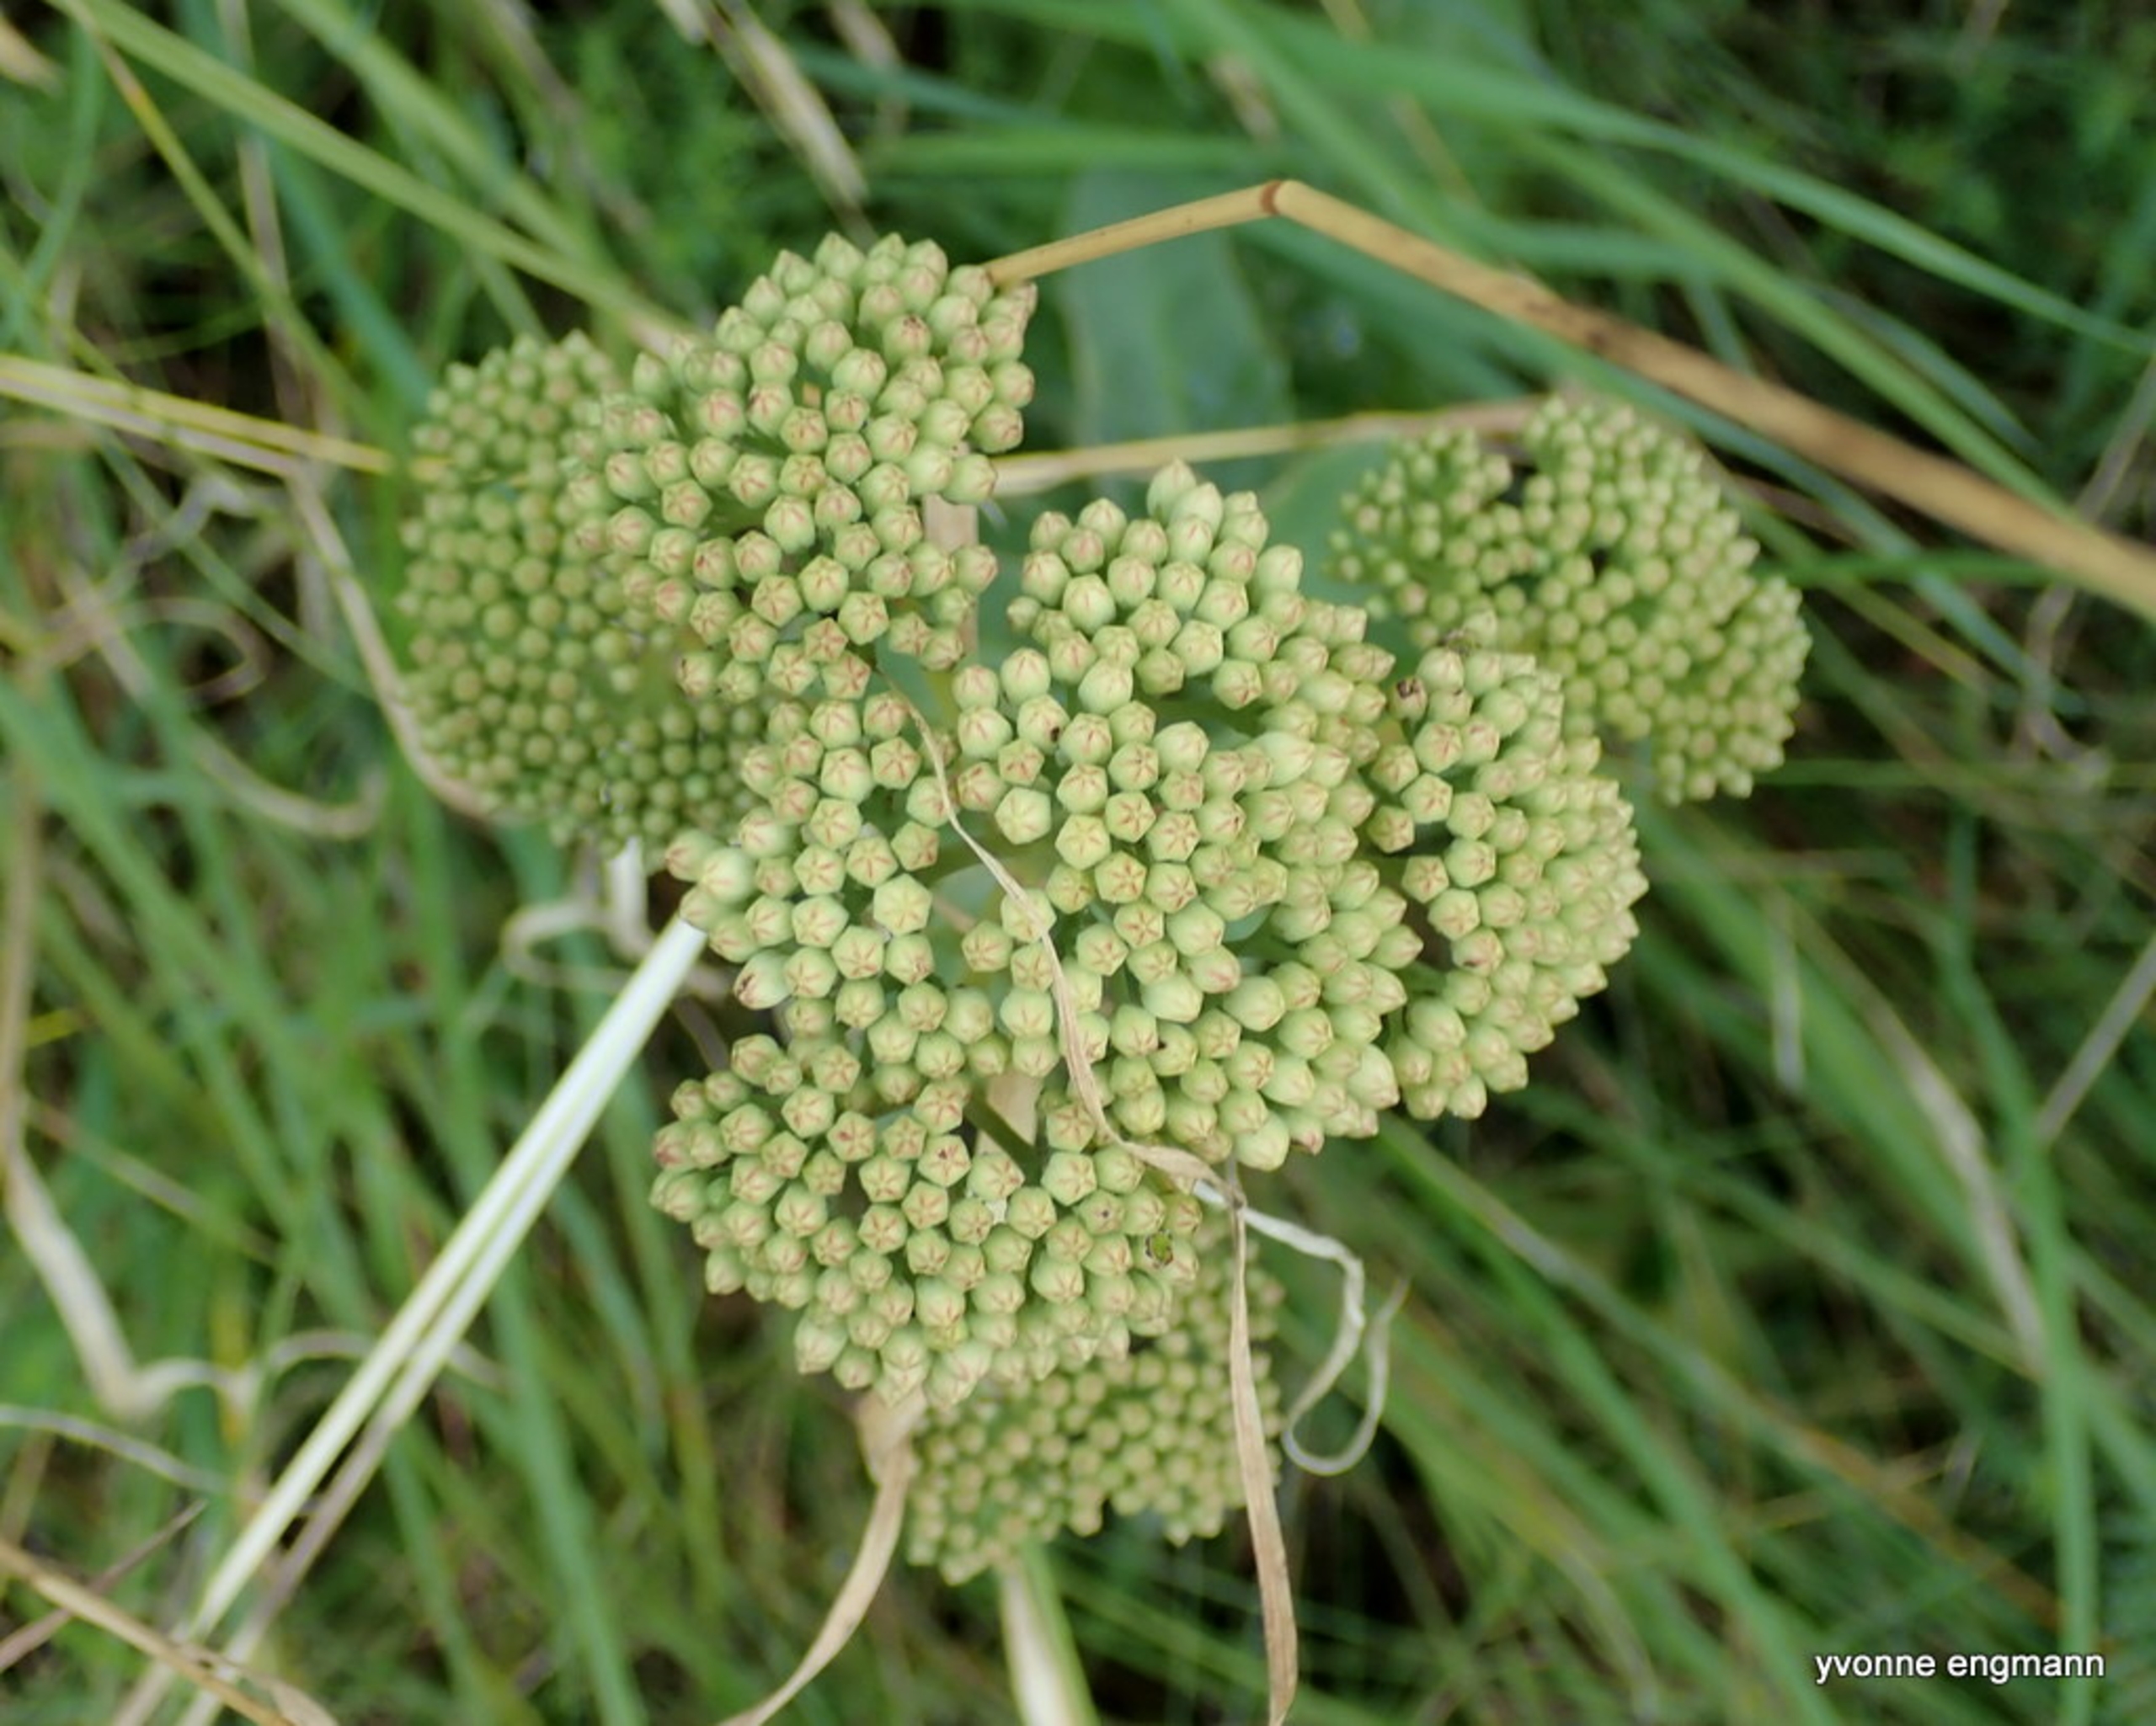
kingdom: Plantae
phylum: Tracheophyta
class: Magnoliopsida
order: Saxifragales
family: Crassulaceae
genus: Hylotelephium
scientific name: Hylotelephium telephium
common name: Sankthansurt
